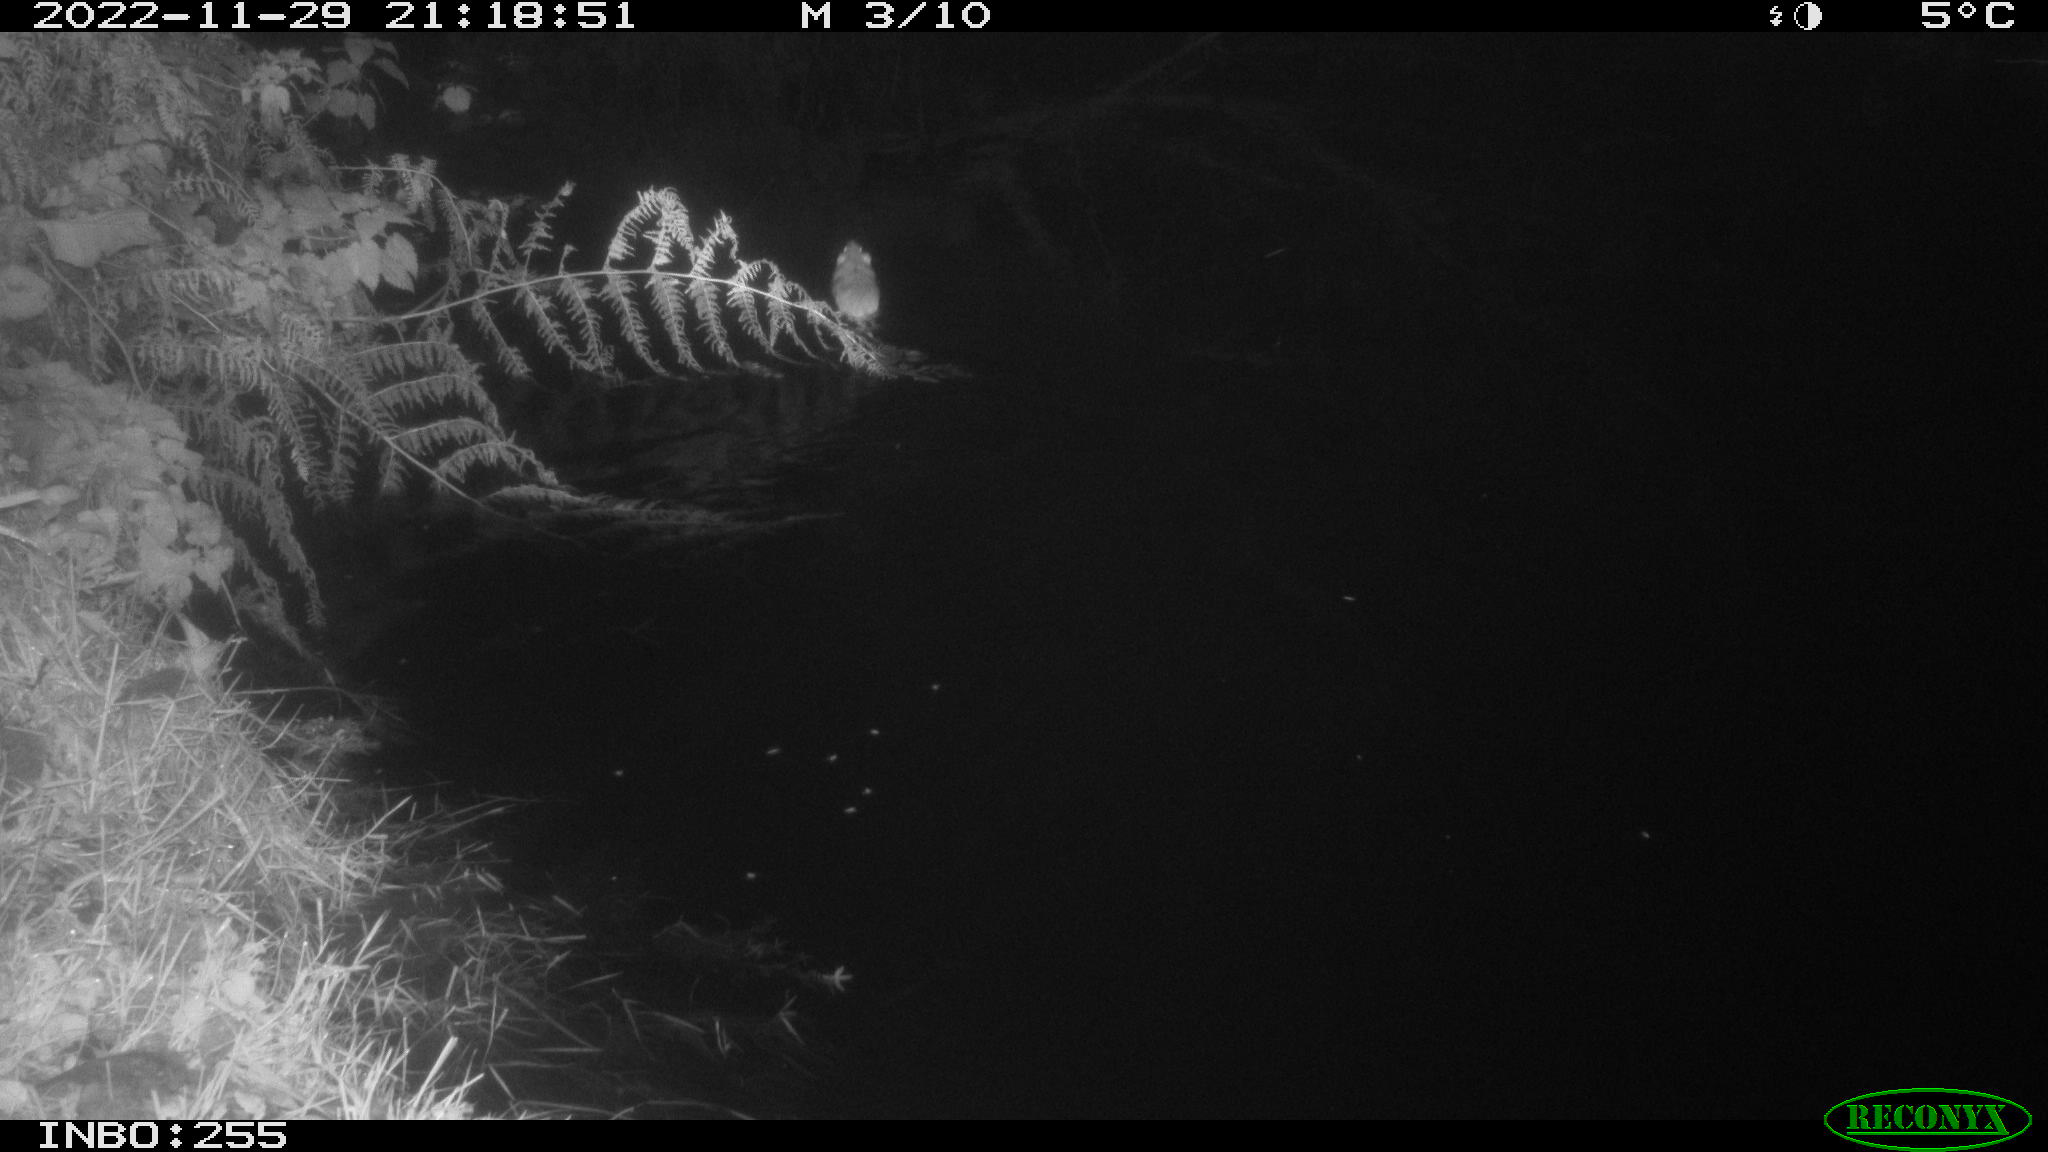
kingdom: Animalia
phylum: Chordata
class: Mammalia
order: Rodentia
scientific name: Rodentia
